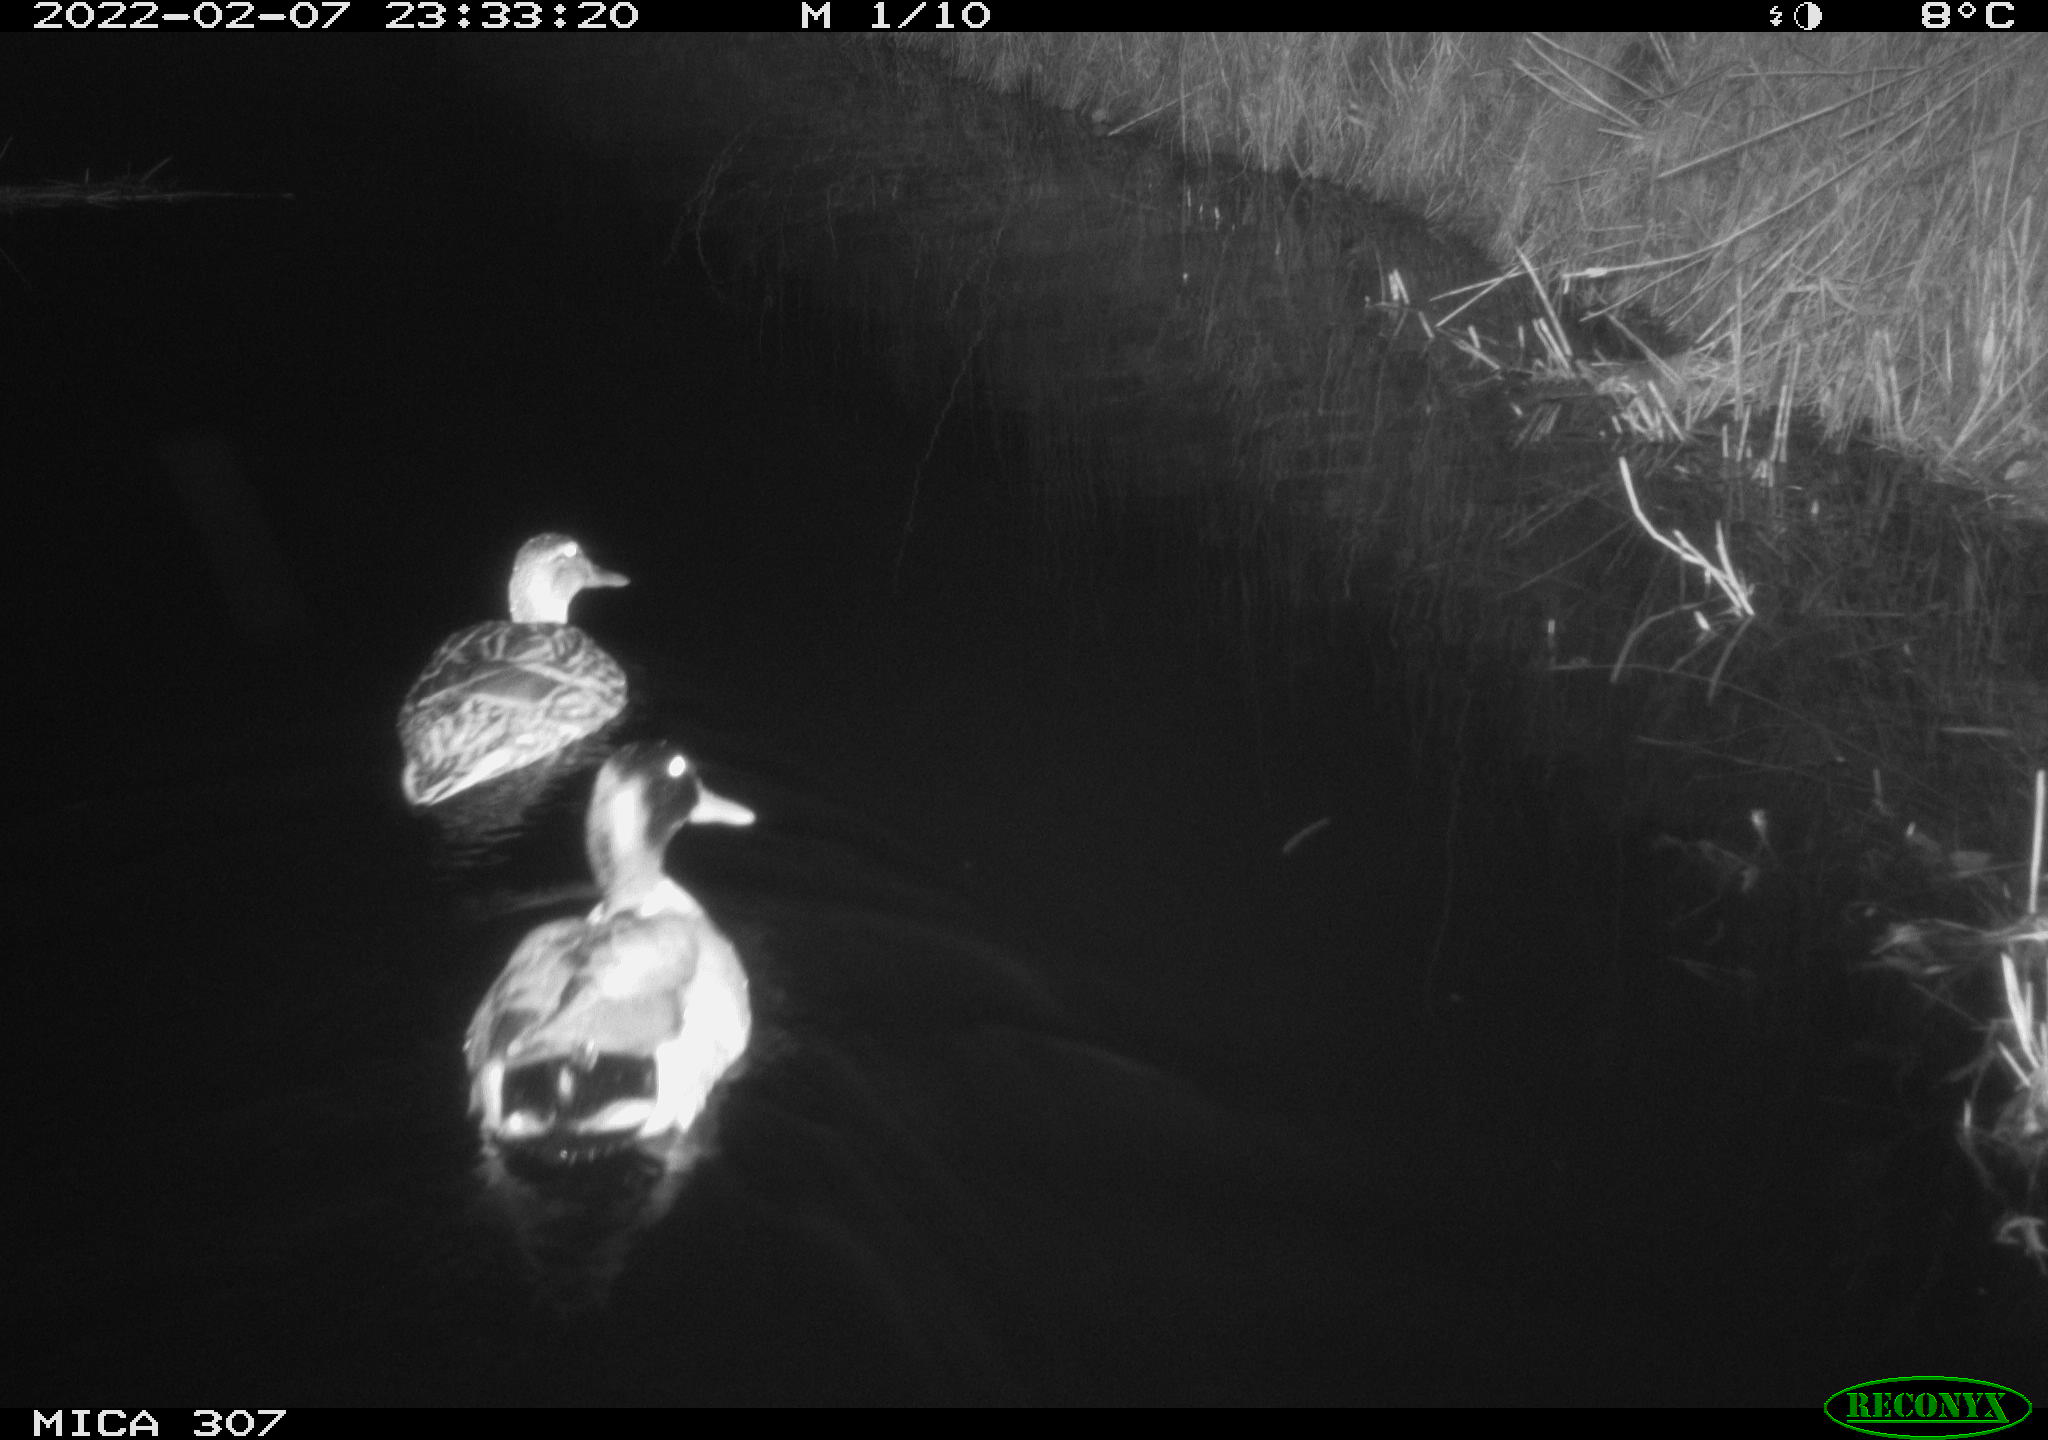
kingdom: Animalia
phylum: Chordata
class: Aves
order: Anseriformes
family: Anatidae
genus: Anas
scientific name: Anas platyrhynchos
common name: Mallard
